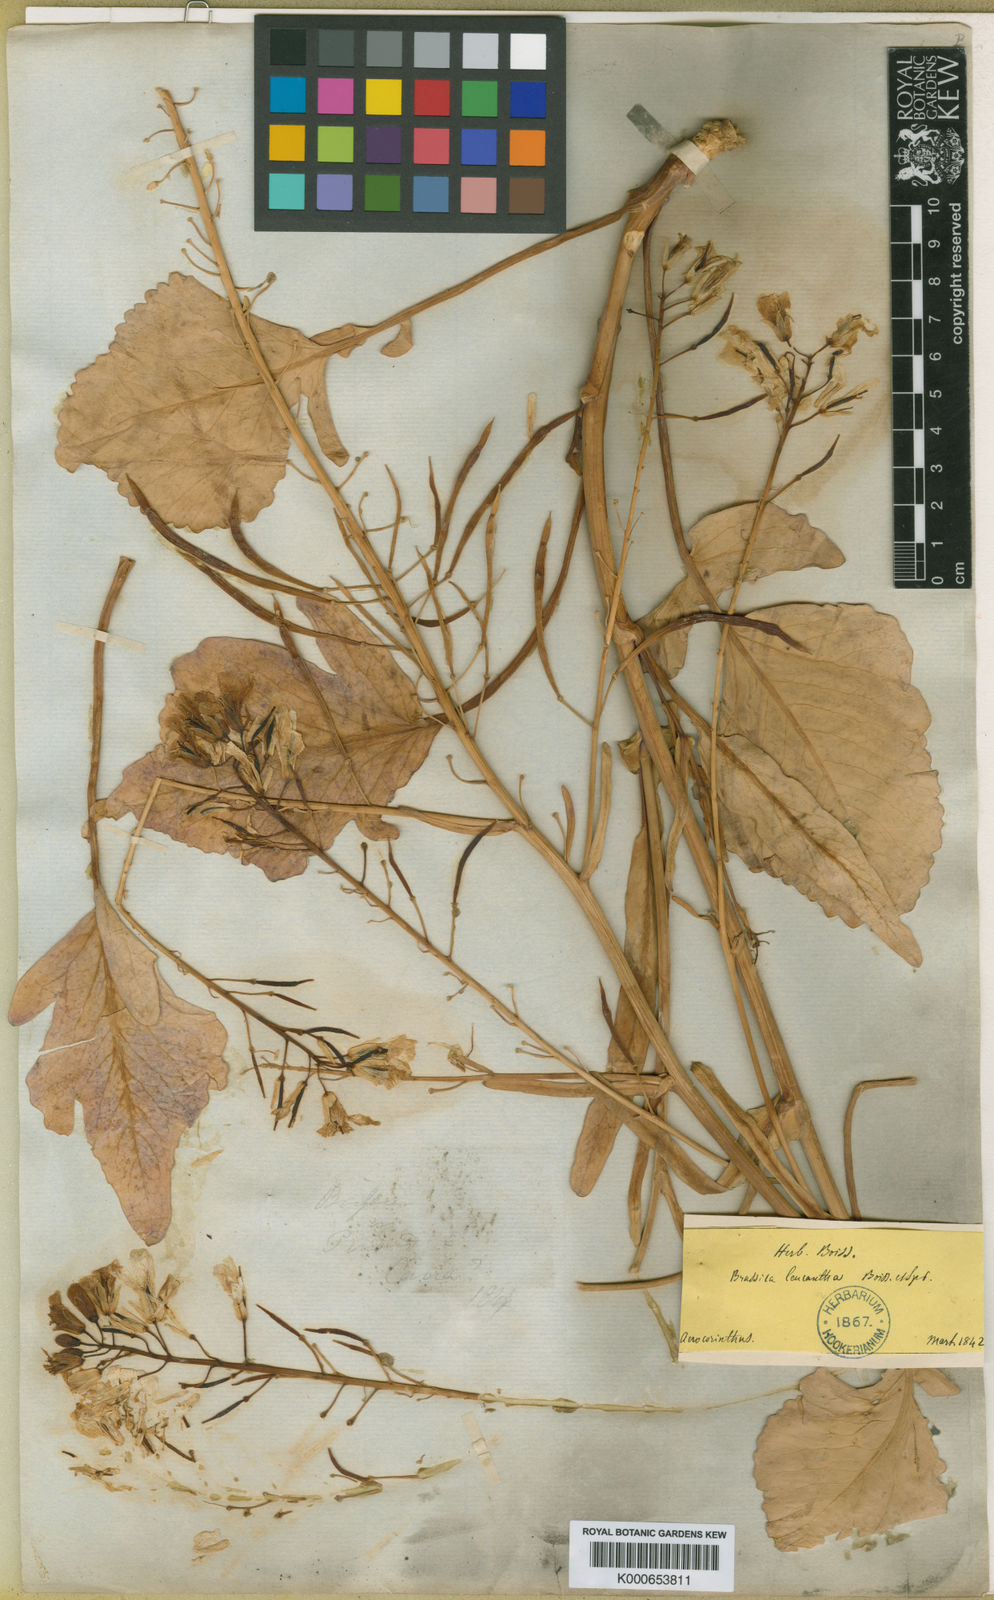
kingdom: Plantae
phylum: Tracheophyta
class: Magnoliopsida
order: Brassicales
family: Brassicaceae
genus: Brassica
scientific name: Brassica cretica
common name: Mustard
